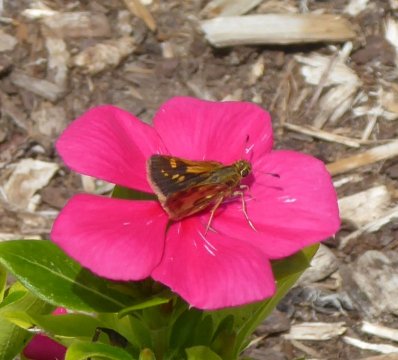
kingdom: Animalia
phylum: Arthropoda
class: Insecta
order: Lepidoptera
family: Hesperiidae
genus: Polites
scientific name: Polites themistocles
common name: Tawny-edged Skipper
